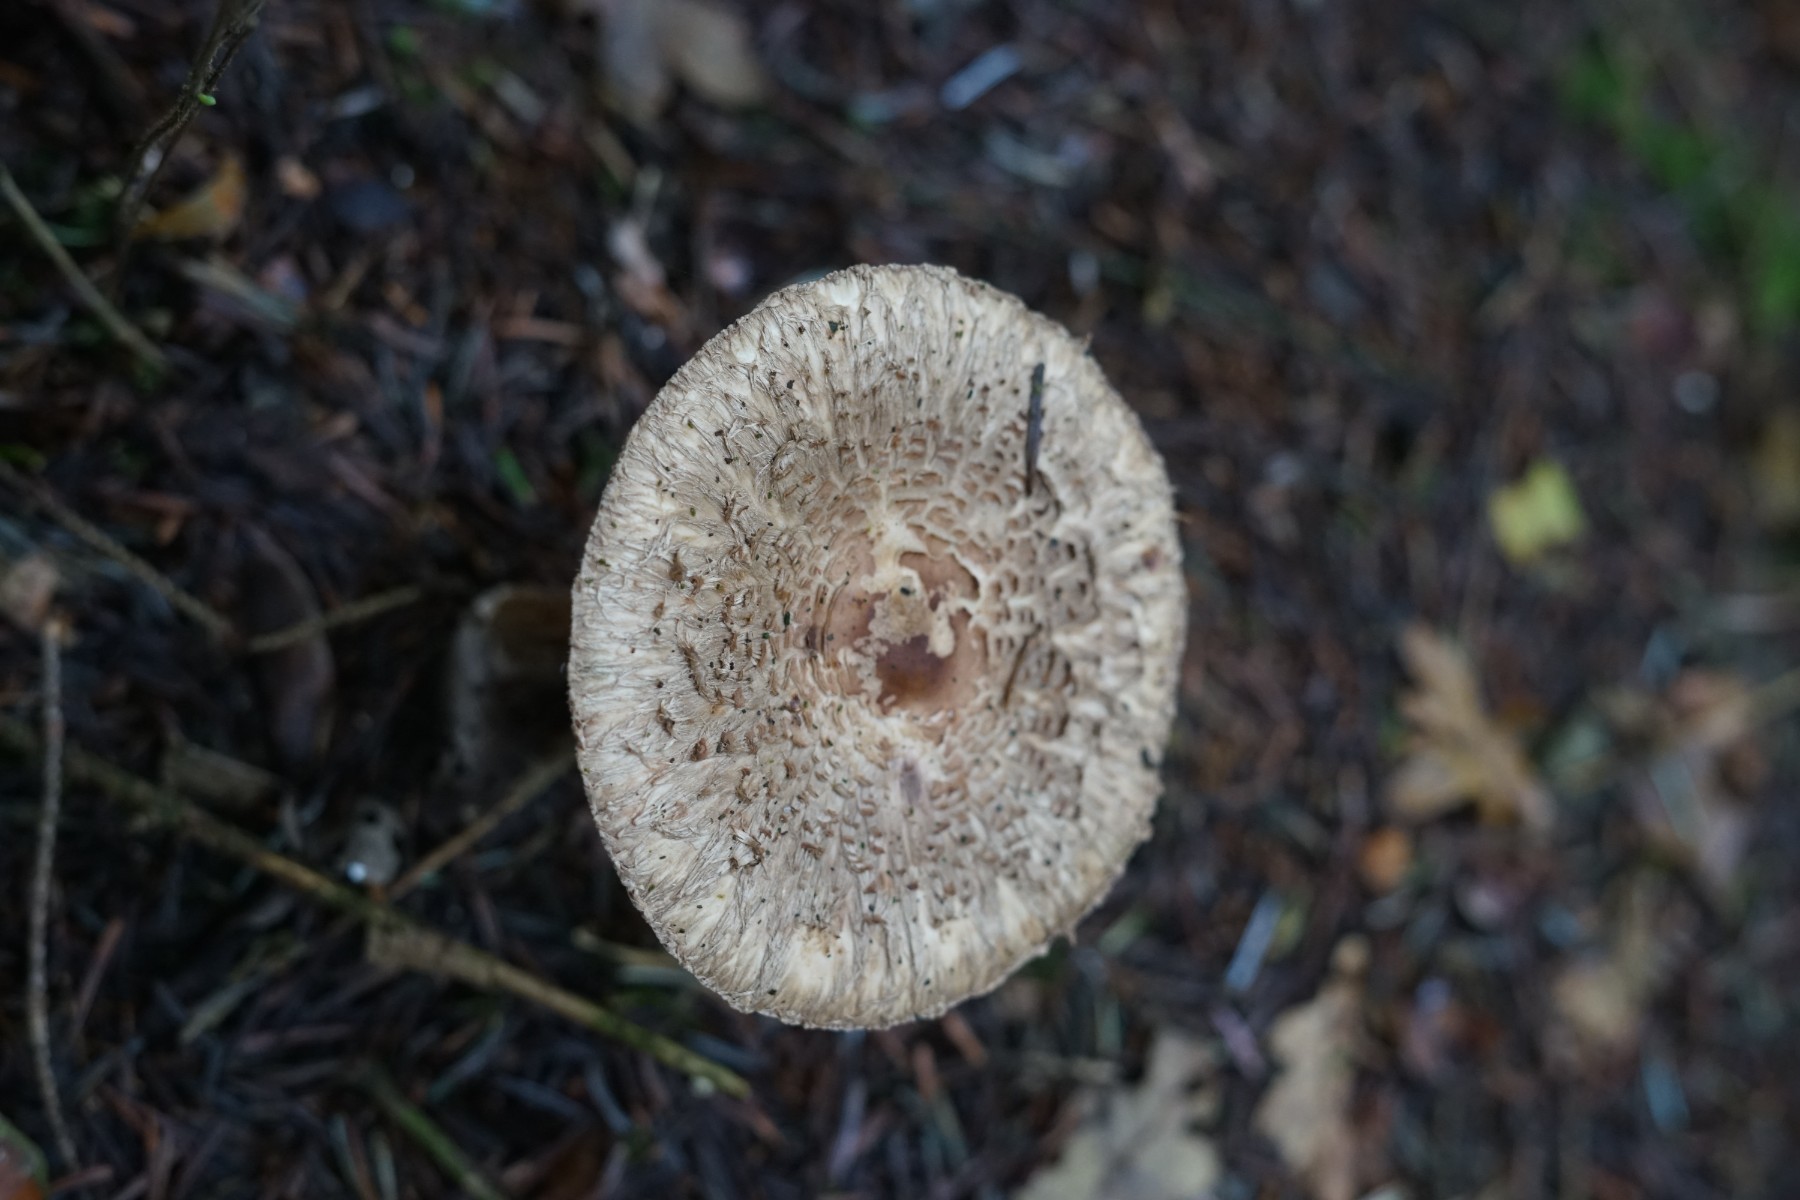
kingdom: Fungi
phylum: Basidiomycota
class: Agaricomycetes
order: Agaricales
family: Agaricaceae
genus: Chlorophyllum
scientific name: Chlorophyllum olivieri
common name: almindelig rabarberhat
